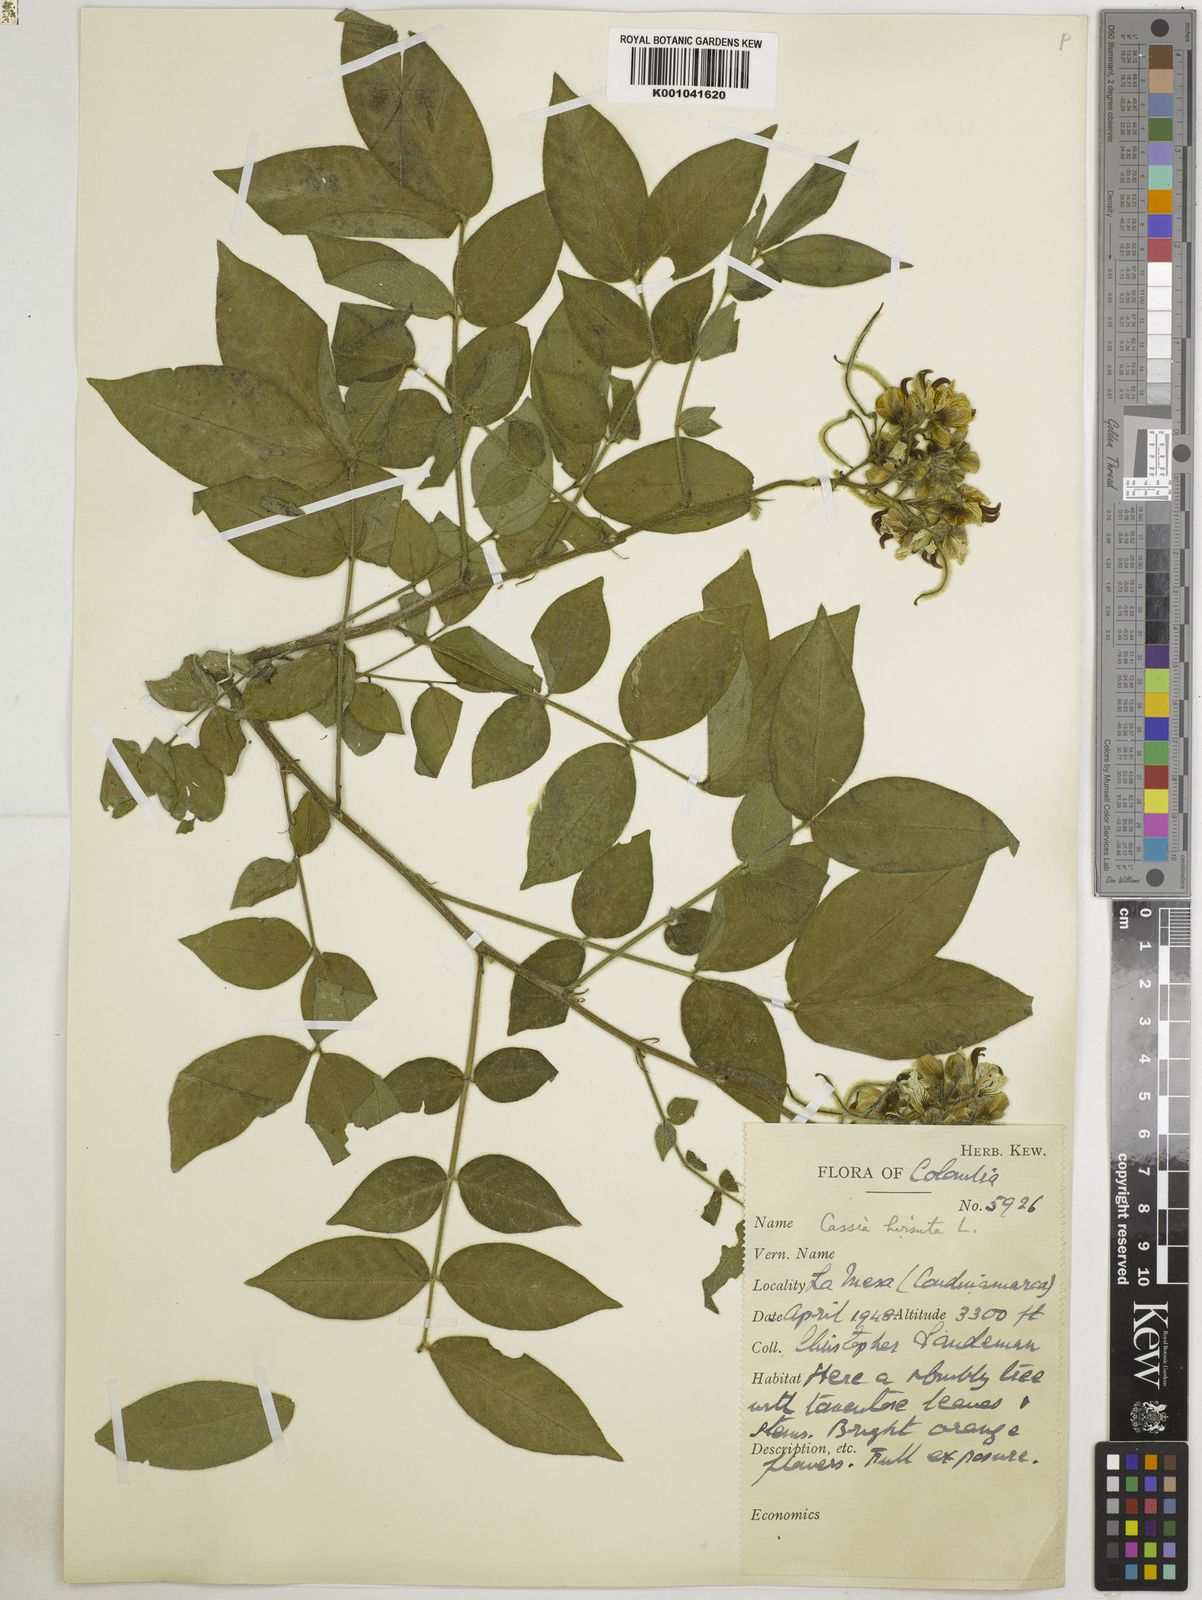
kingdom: Plantae
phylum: Tracheophyta
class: Magnoliopsida
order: Fabales
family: Fabaceae
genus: Senna
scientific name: Senna hirsuta
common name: Woolly senna
